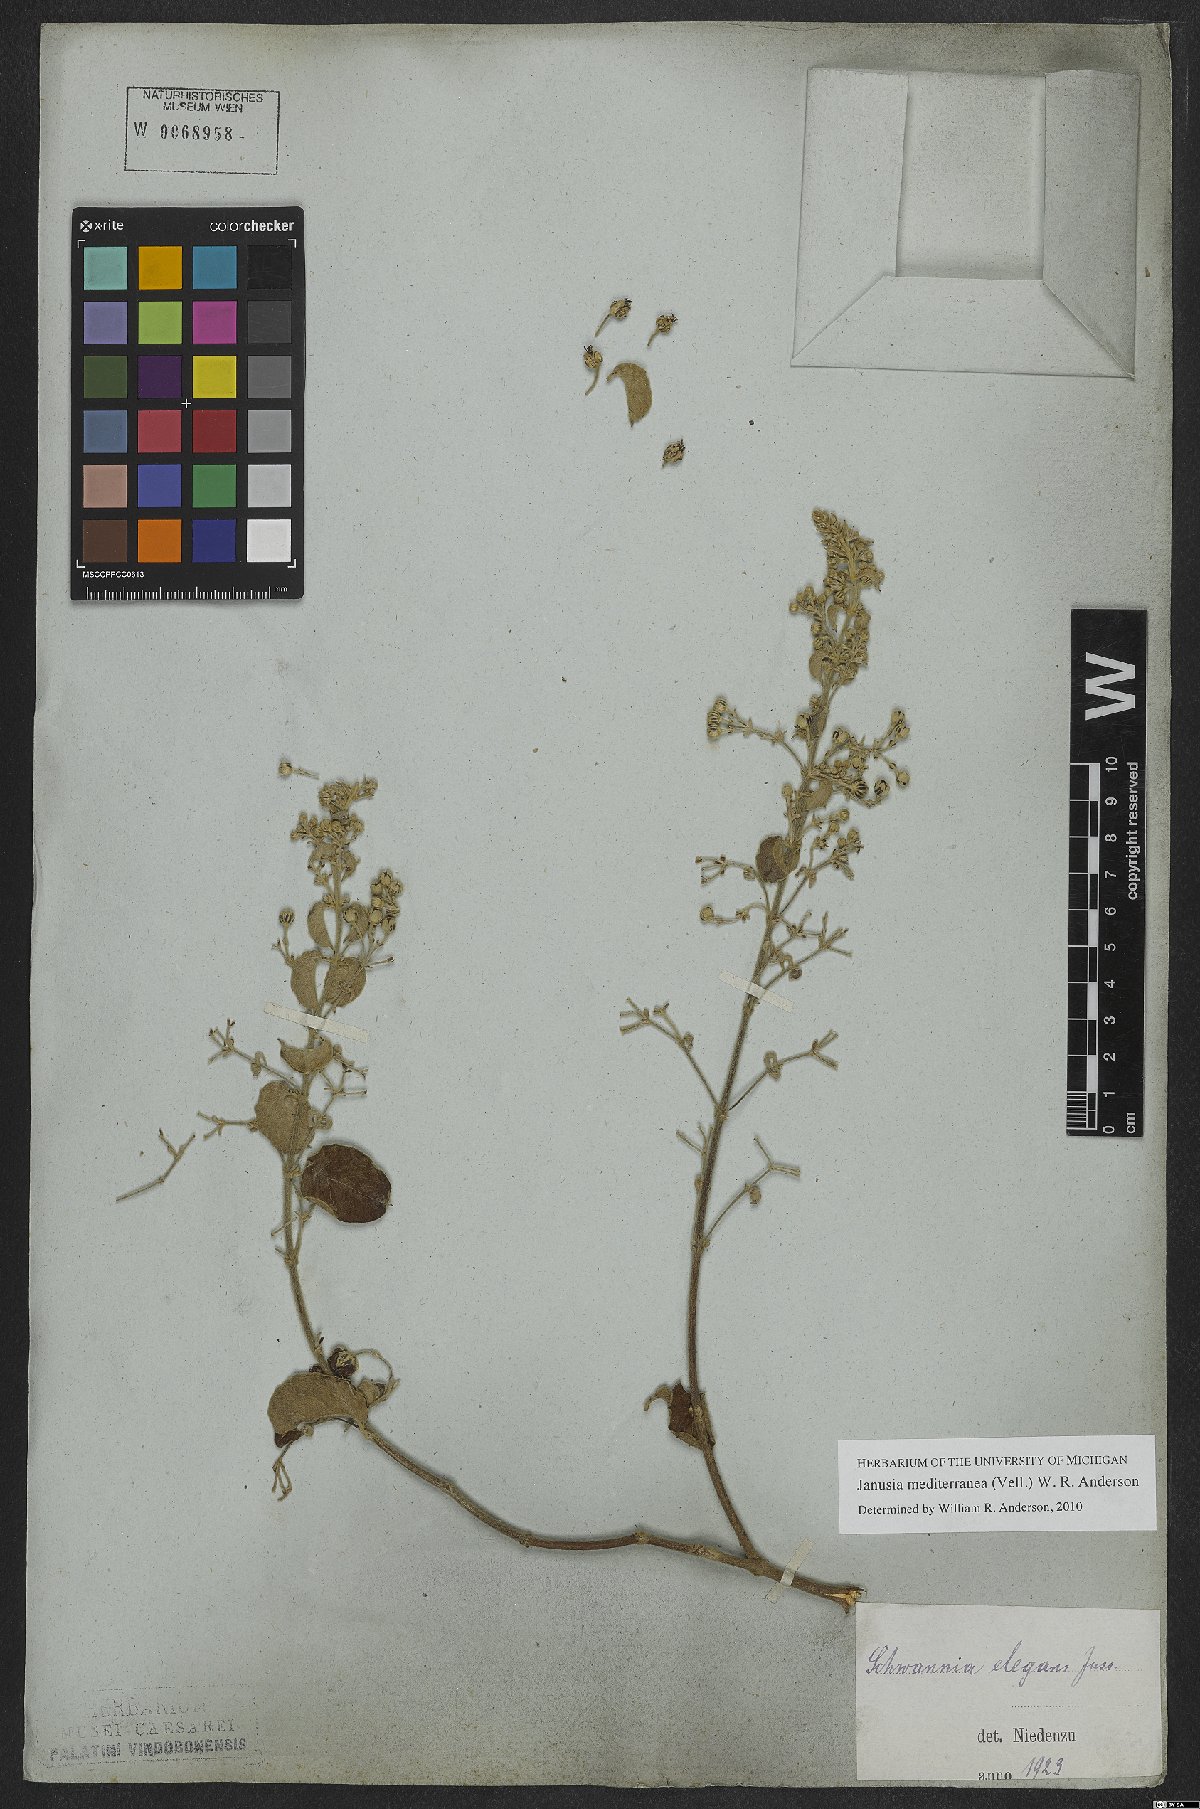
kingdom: Plantae
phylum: Tracheophyta
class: Magnoliopsida
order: Malpighiales
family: Malpighiaceae
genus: Janusia
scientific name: Janusia mediterranea
